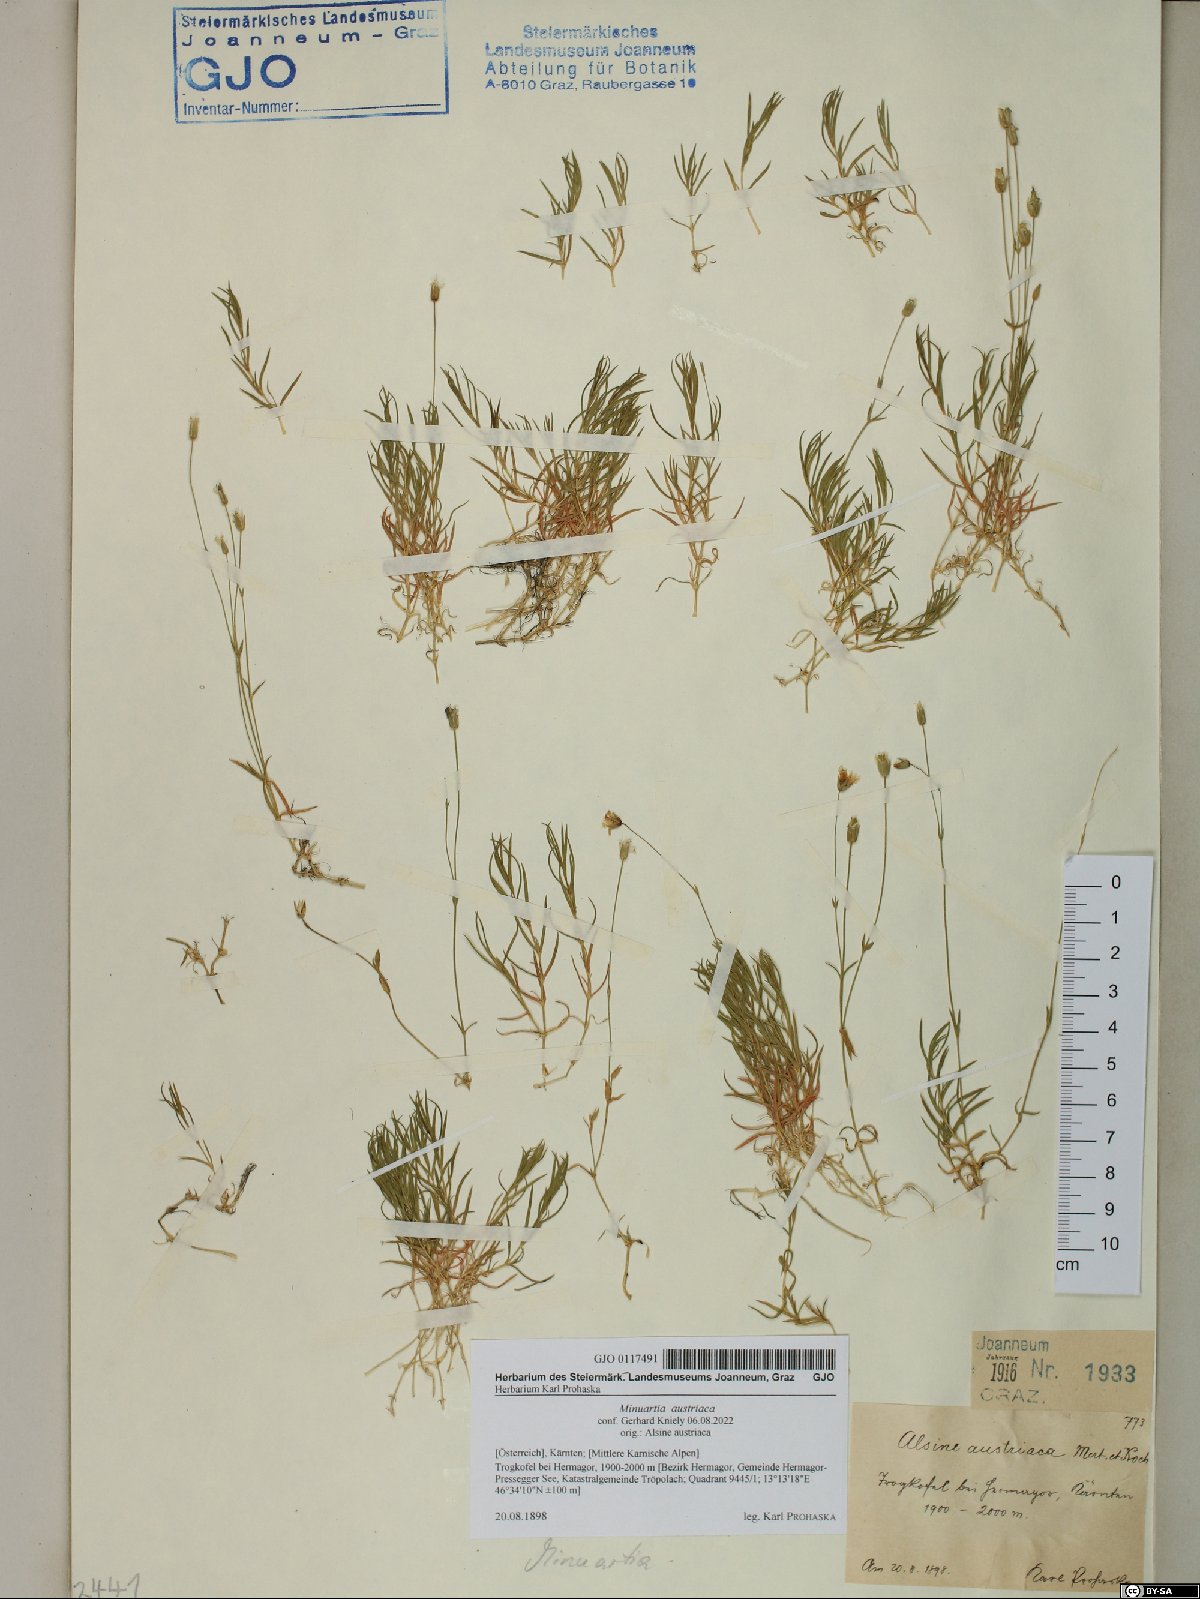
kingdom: Plantae
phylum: Tracheophyta
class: Magnoliopsida
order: Caryophyllales
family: Caryophyllaceae
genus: Sabulina
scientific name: Sabulina austriaca
